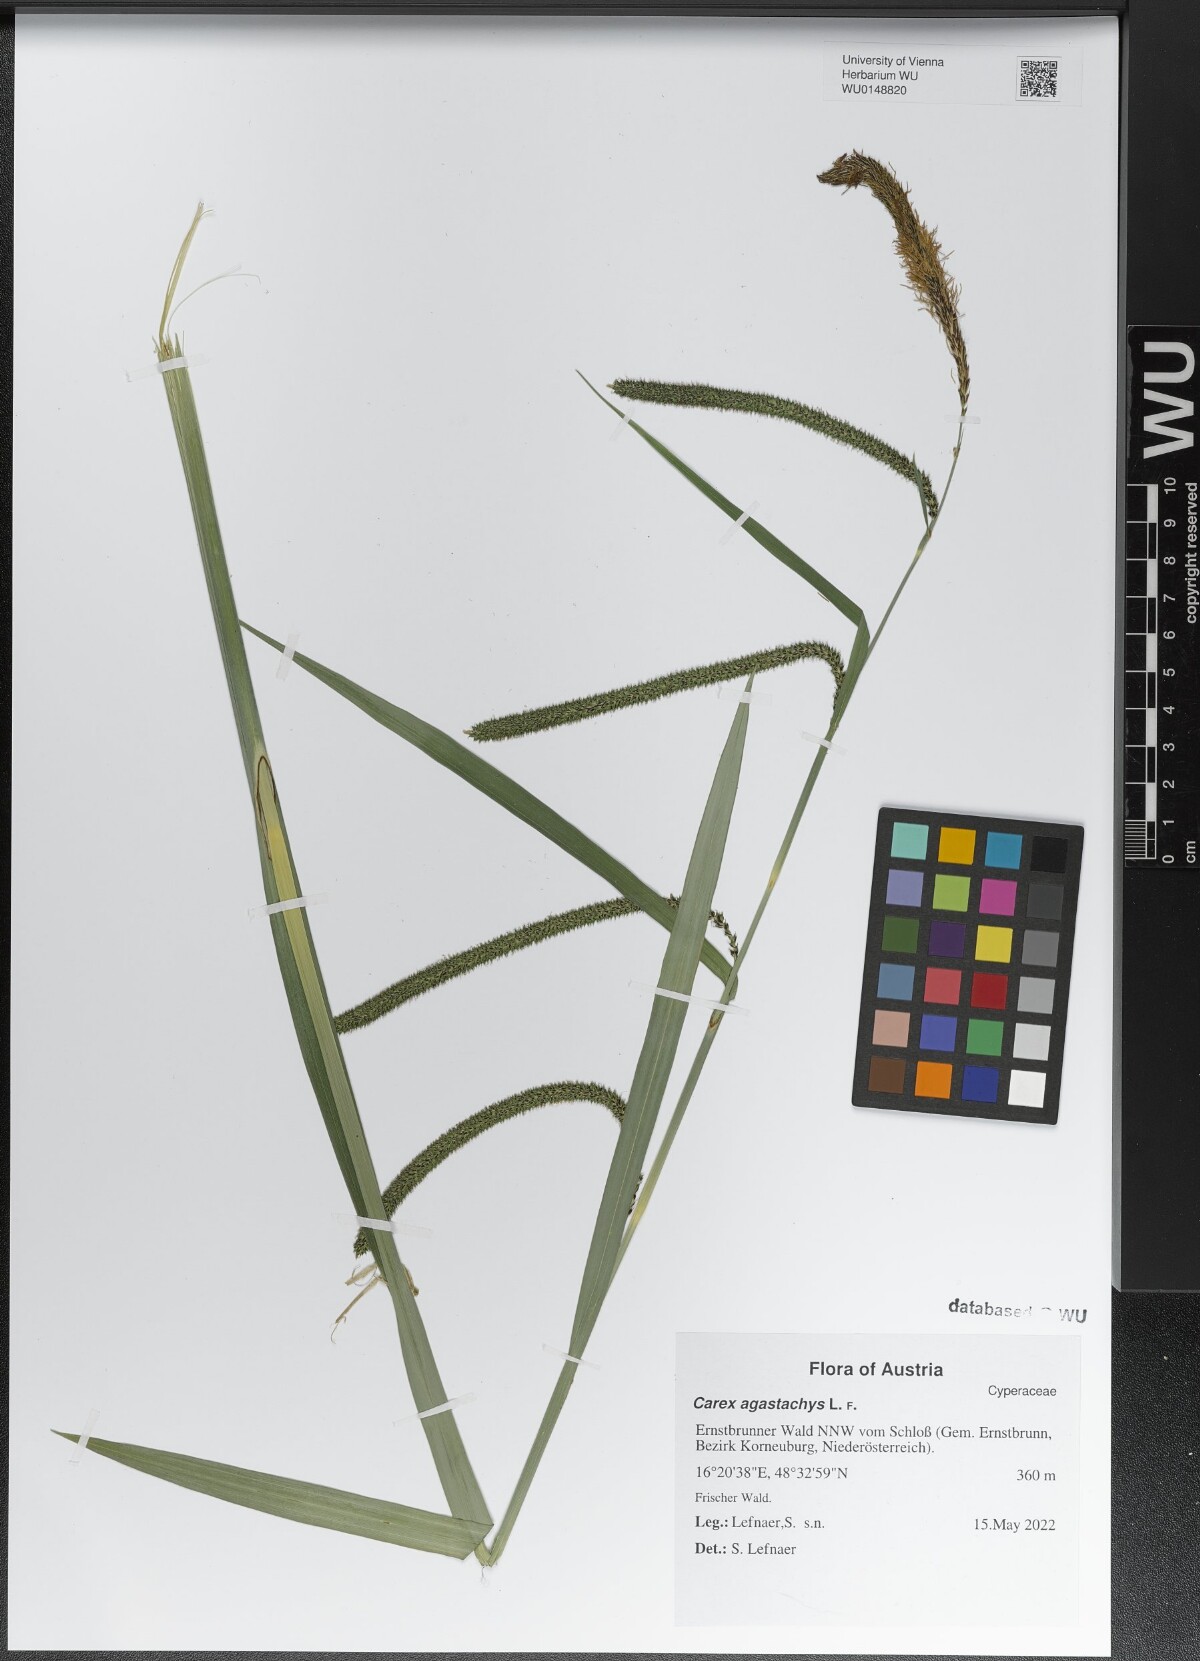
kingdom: Plantae
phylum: Tracheophyta
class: Liliopsida
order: Poales
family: Cyperaceae
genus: Carex
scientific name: Carex agastachys
